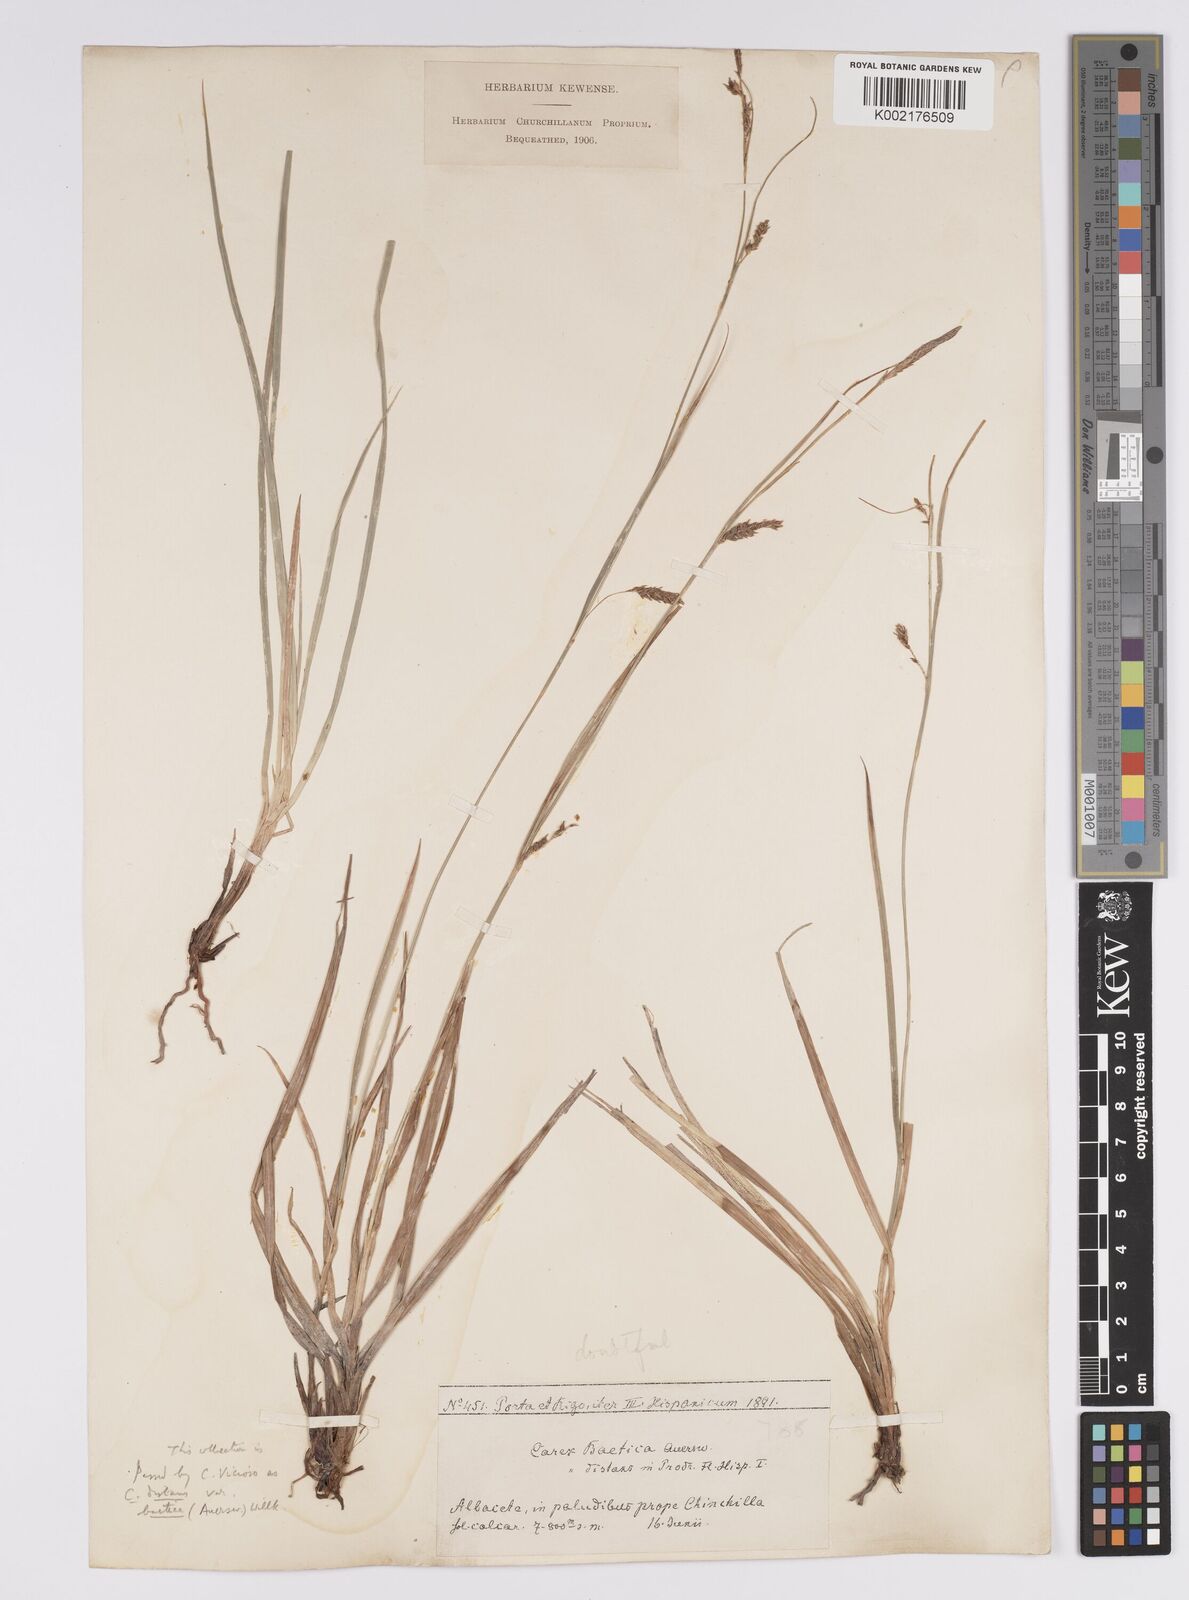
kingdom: Plantae
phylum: Tracheophyta
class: Liliopsida
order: Poales
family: Cyperaceae
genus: Carex
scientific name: Carex distans
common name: Distant sedge
